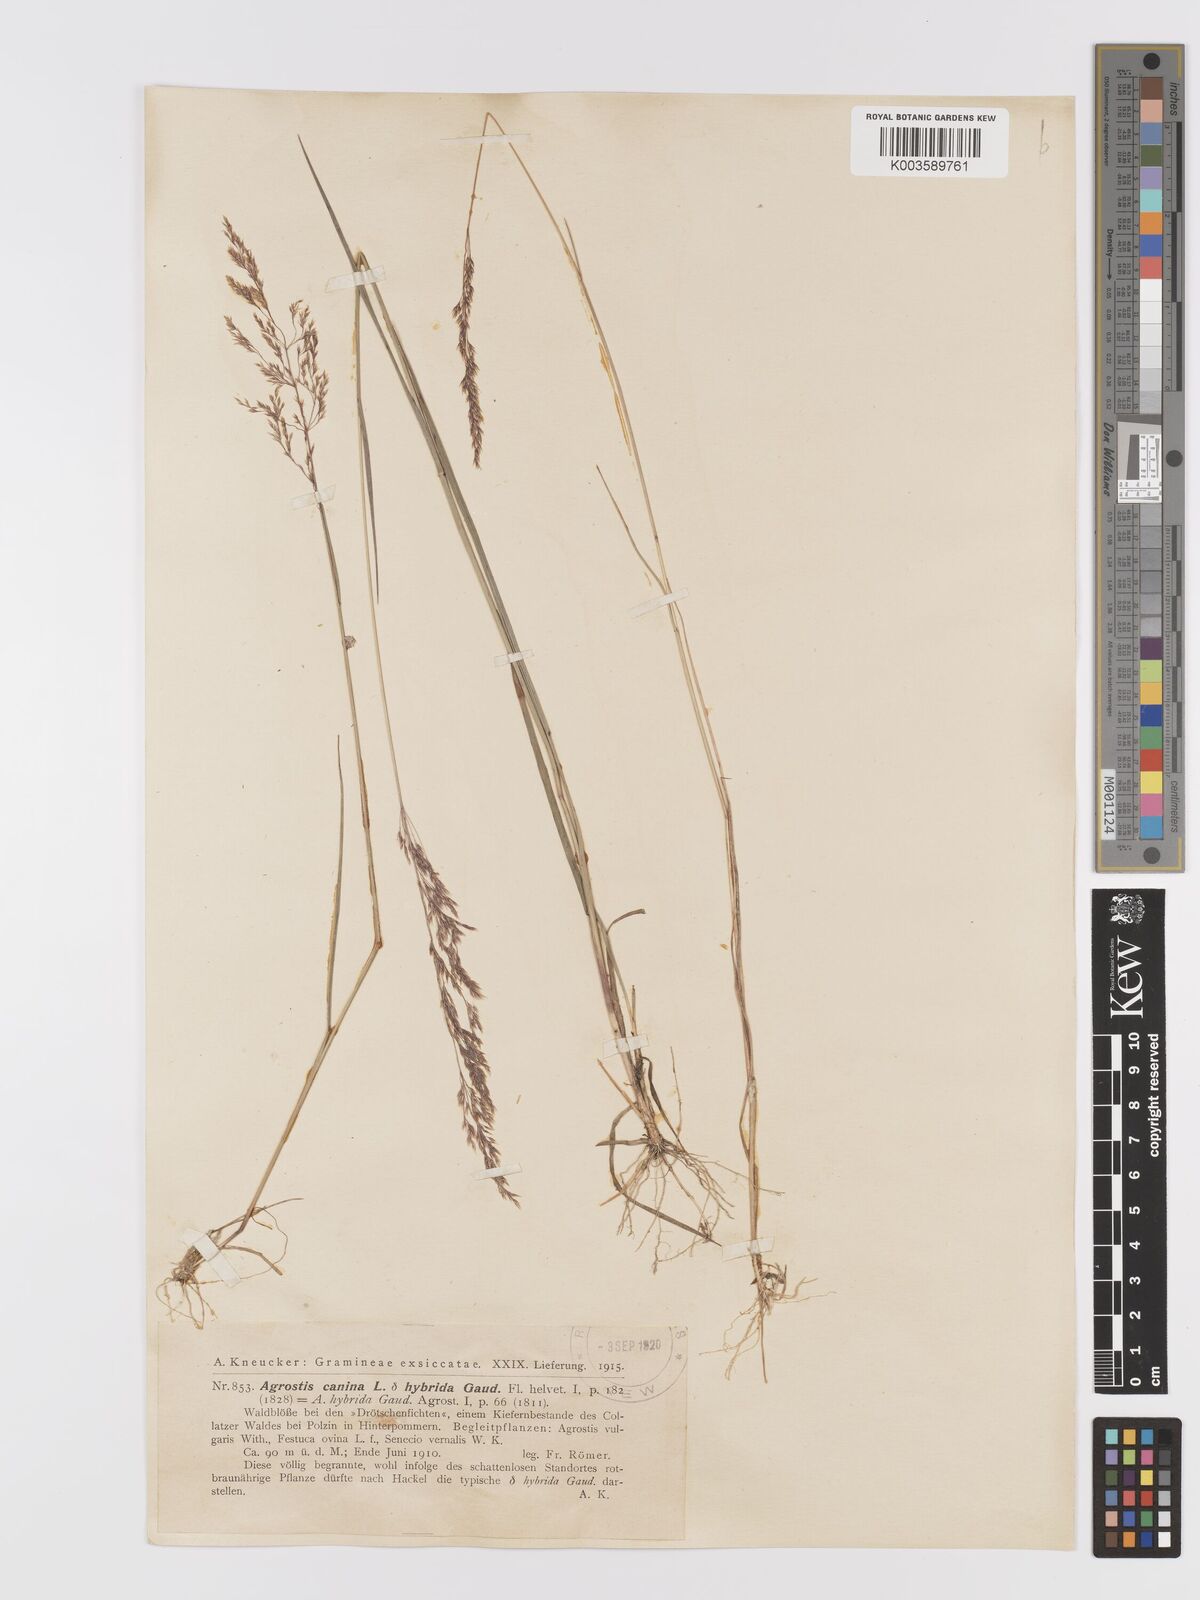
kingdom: Plantae
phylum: Tracheophyta
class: Liliopsida
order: Poales
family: Poaceae
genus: Agrostis
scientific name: Agrostis
